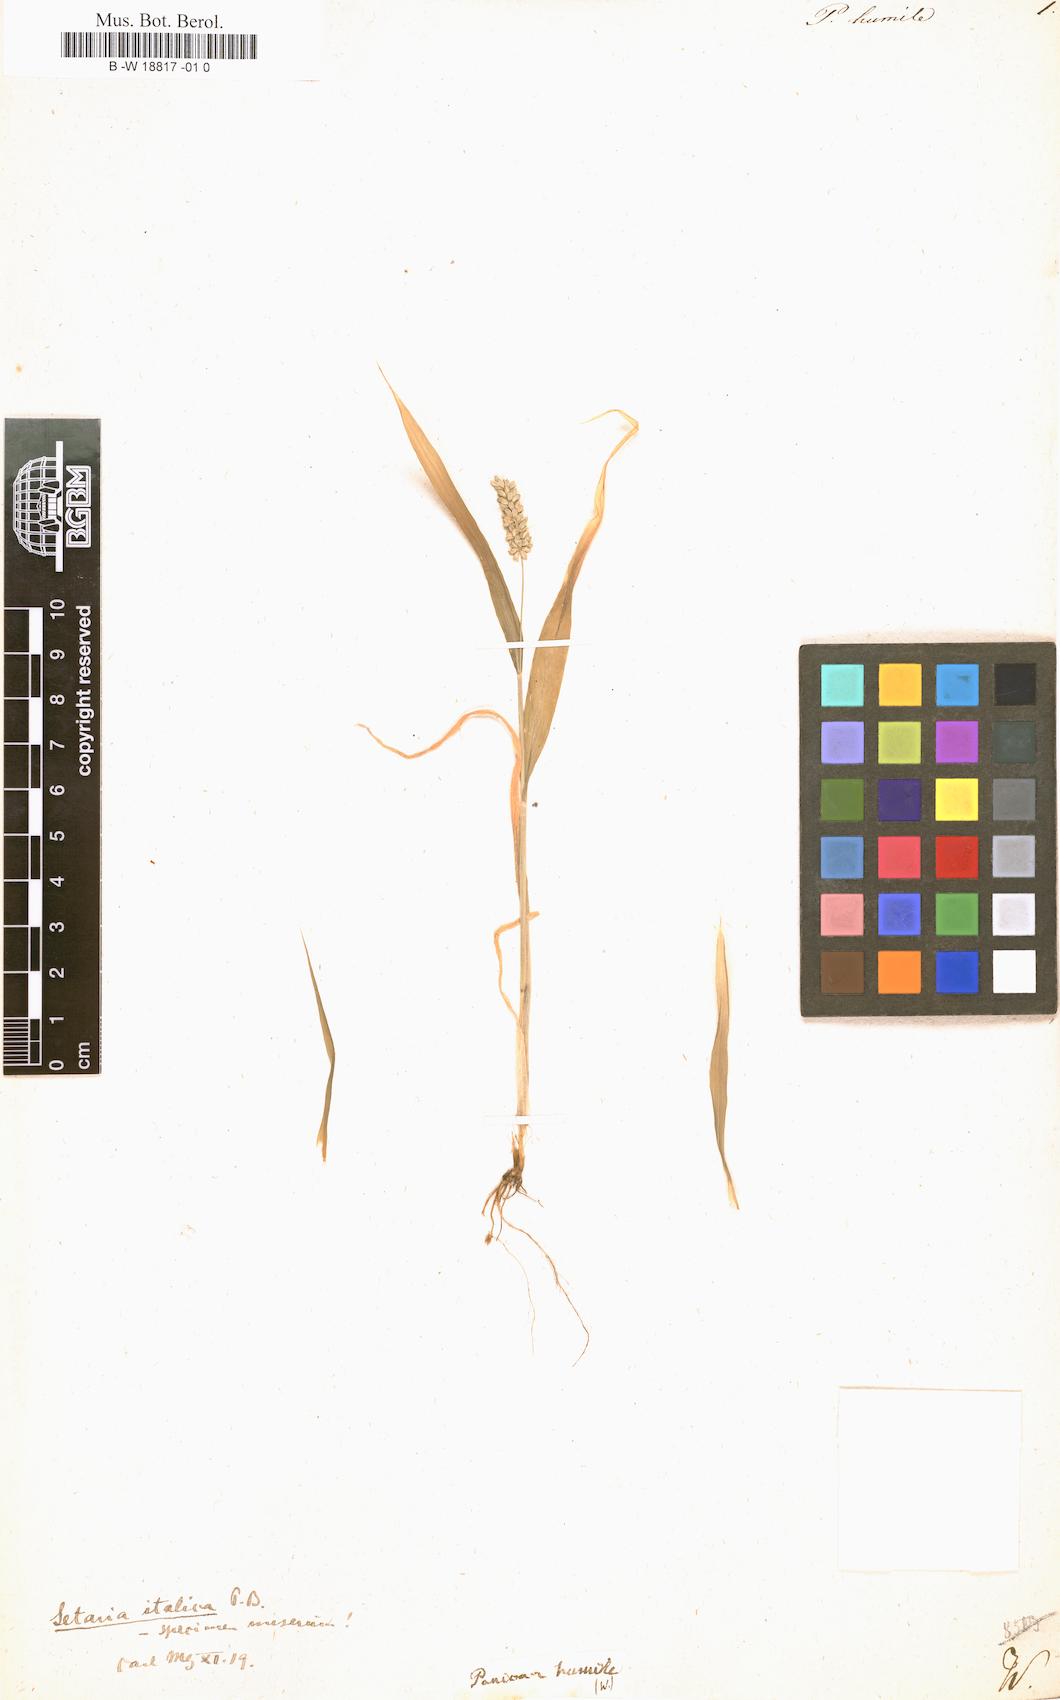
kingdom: Plantae
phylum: Tracheophyta
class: Liliopsida
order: Poales
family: Poaceae
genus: Panicum
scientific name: Panicum humile
